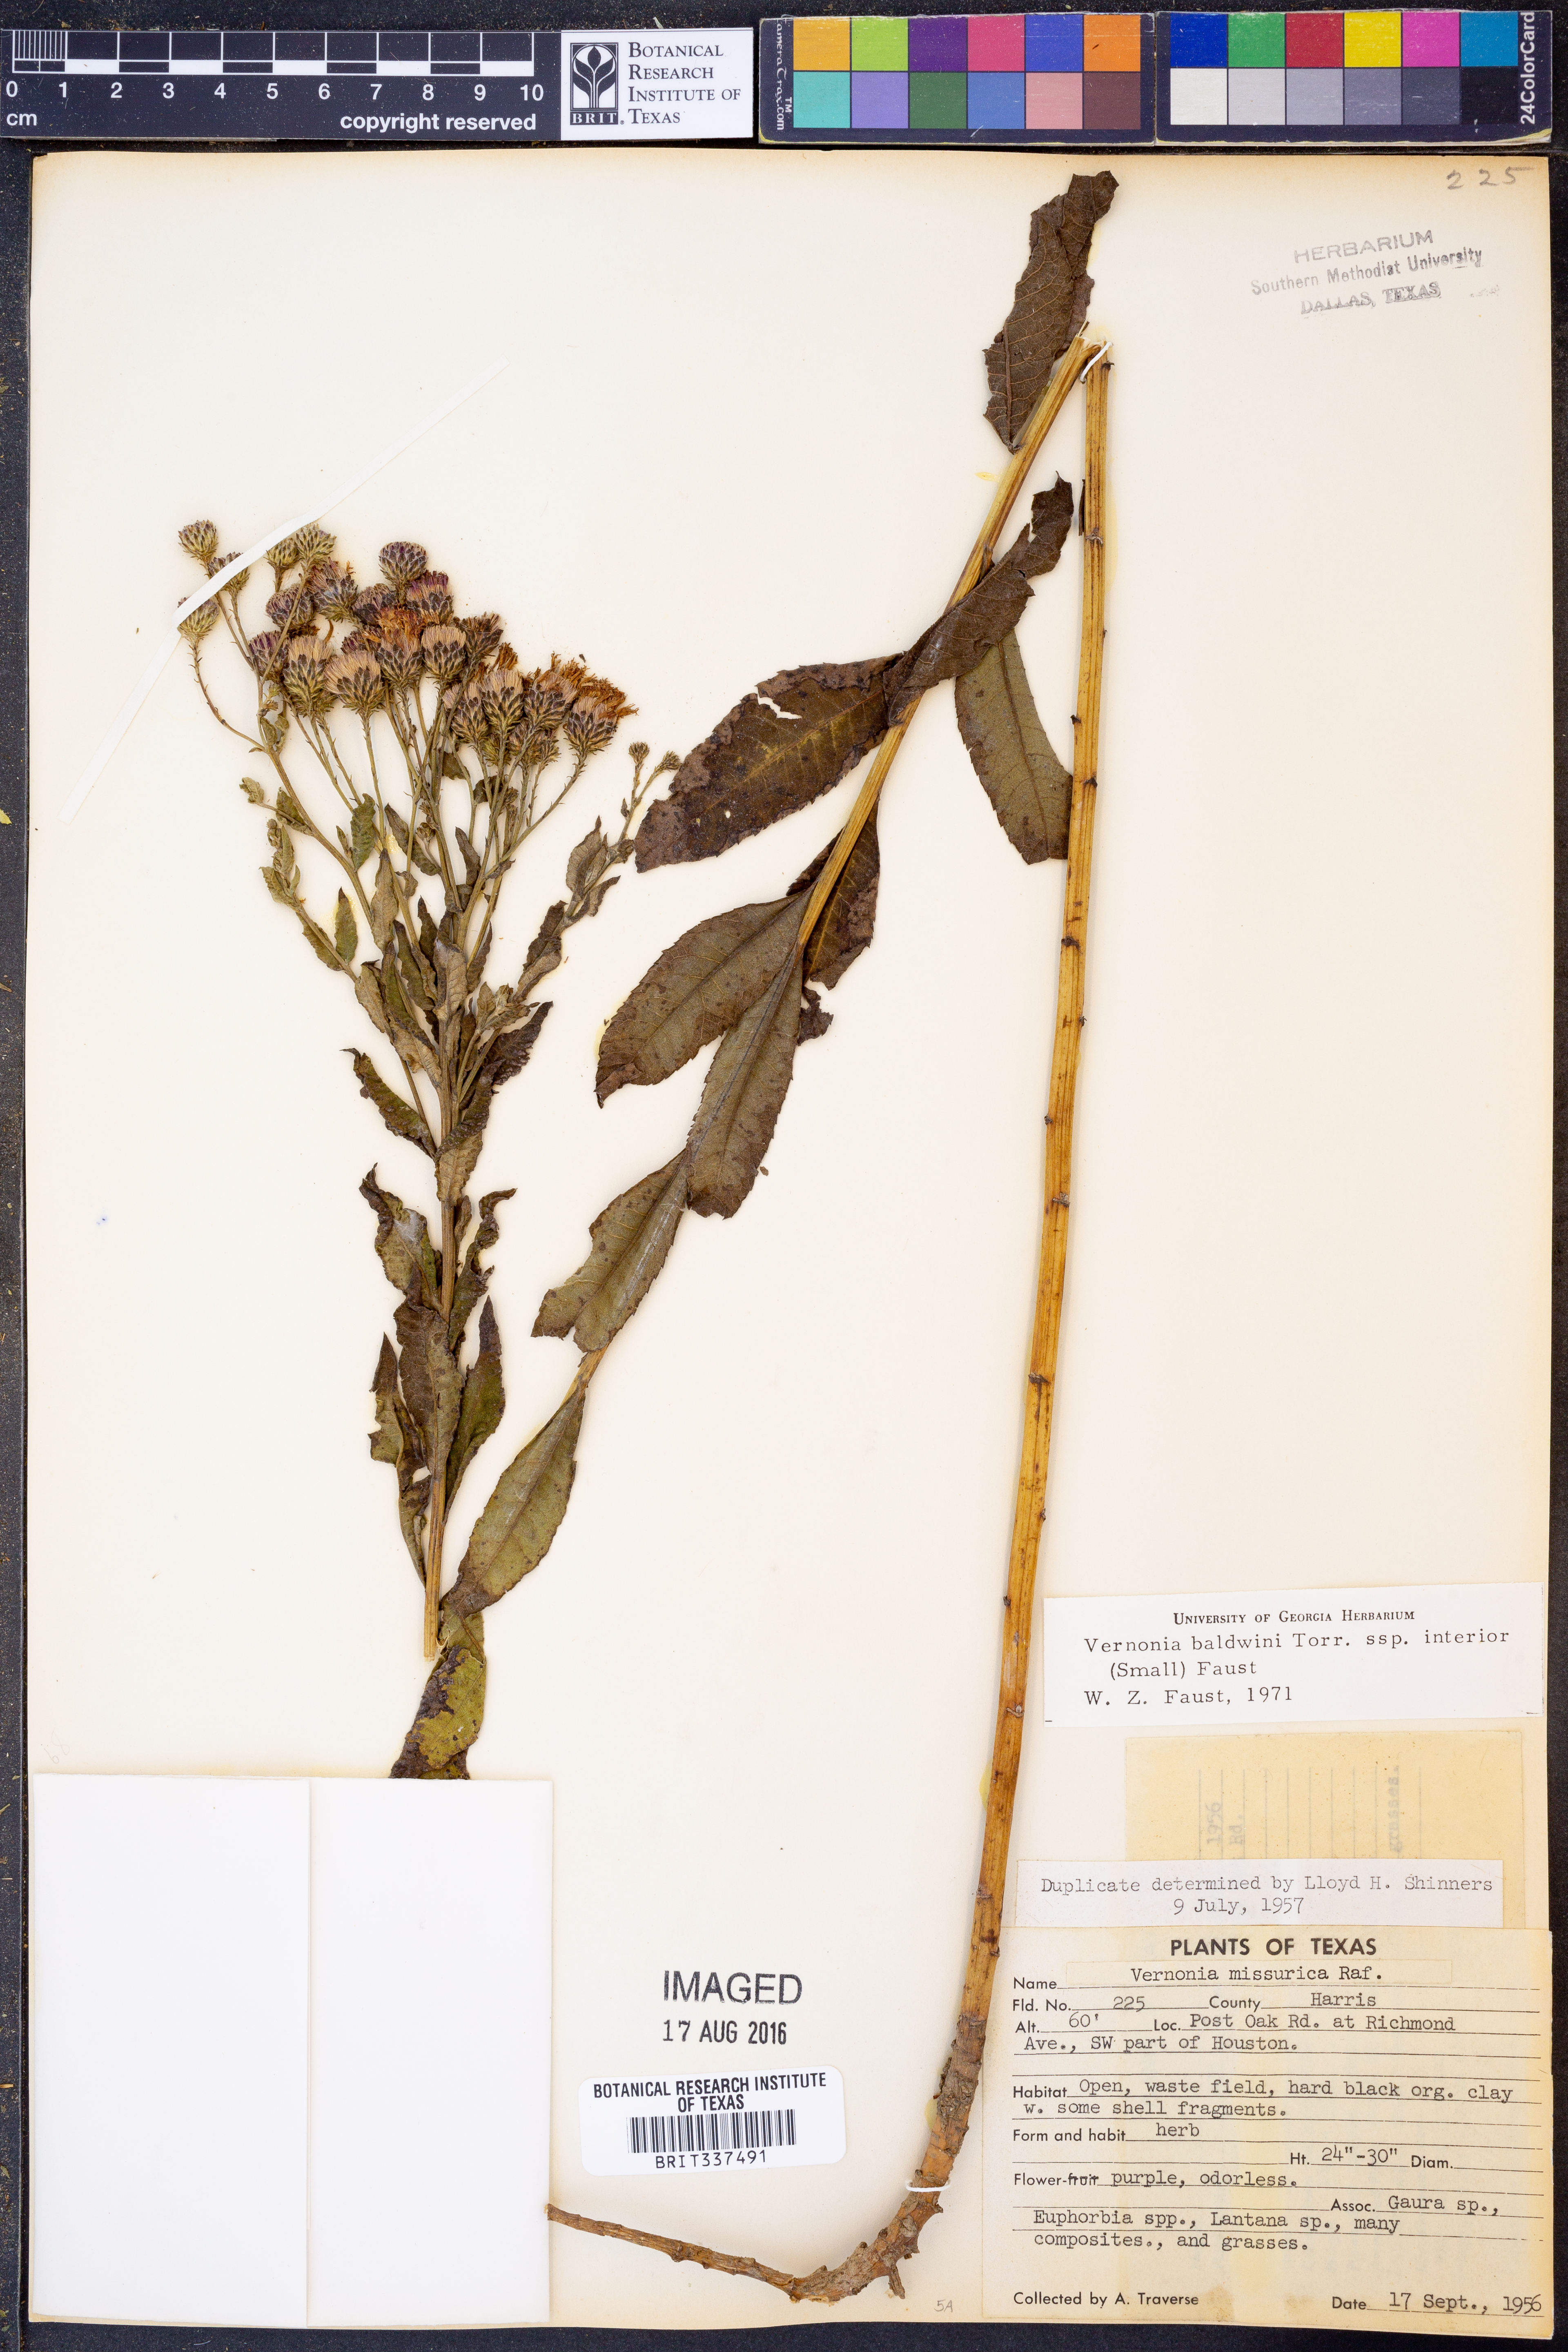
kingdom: Plantae
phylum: Tracheophyta
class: Magnoliopsida
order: Asterales
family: Asteraceae
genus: Vernonia
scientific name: Vernonia baldwinii
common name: Western ironweed
